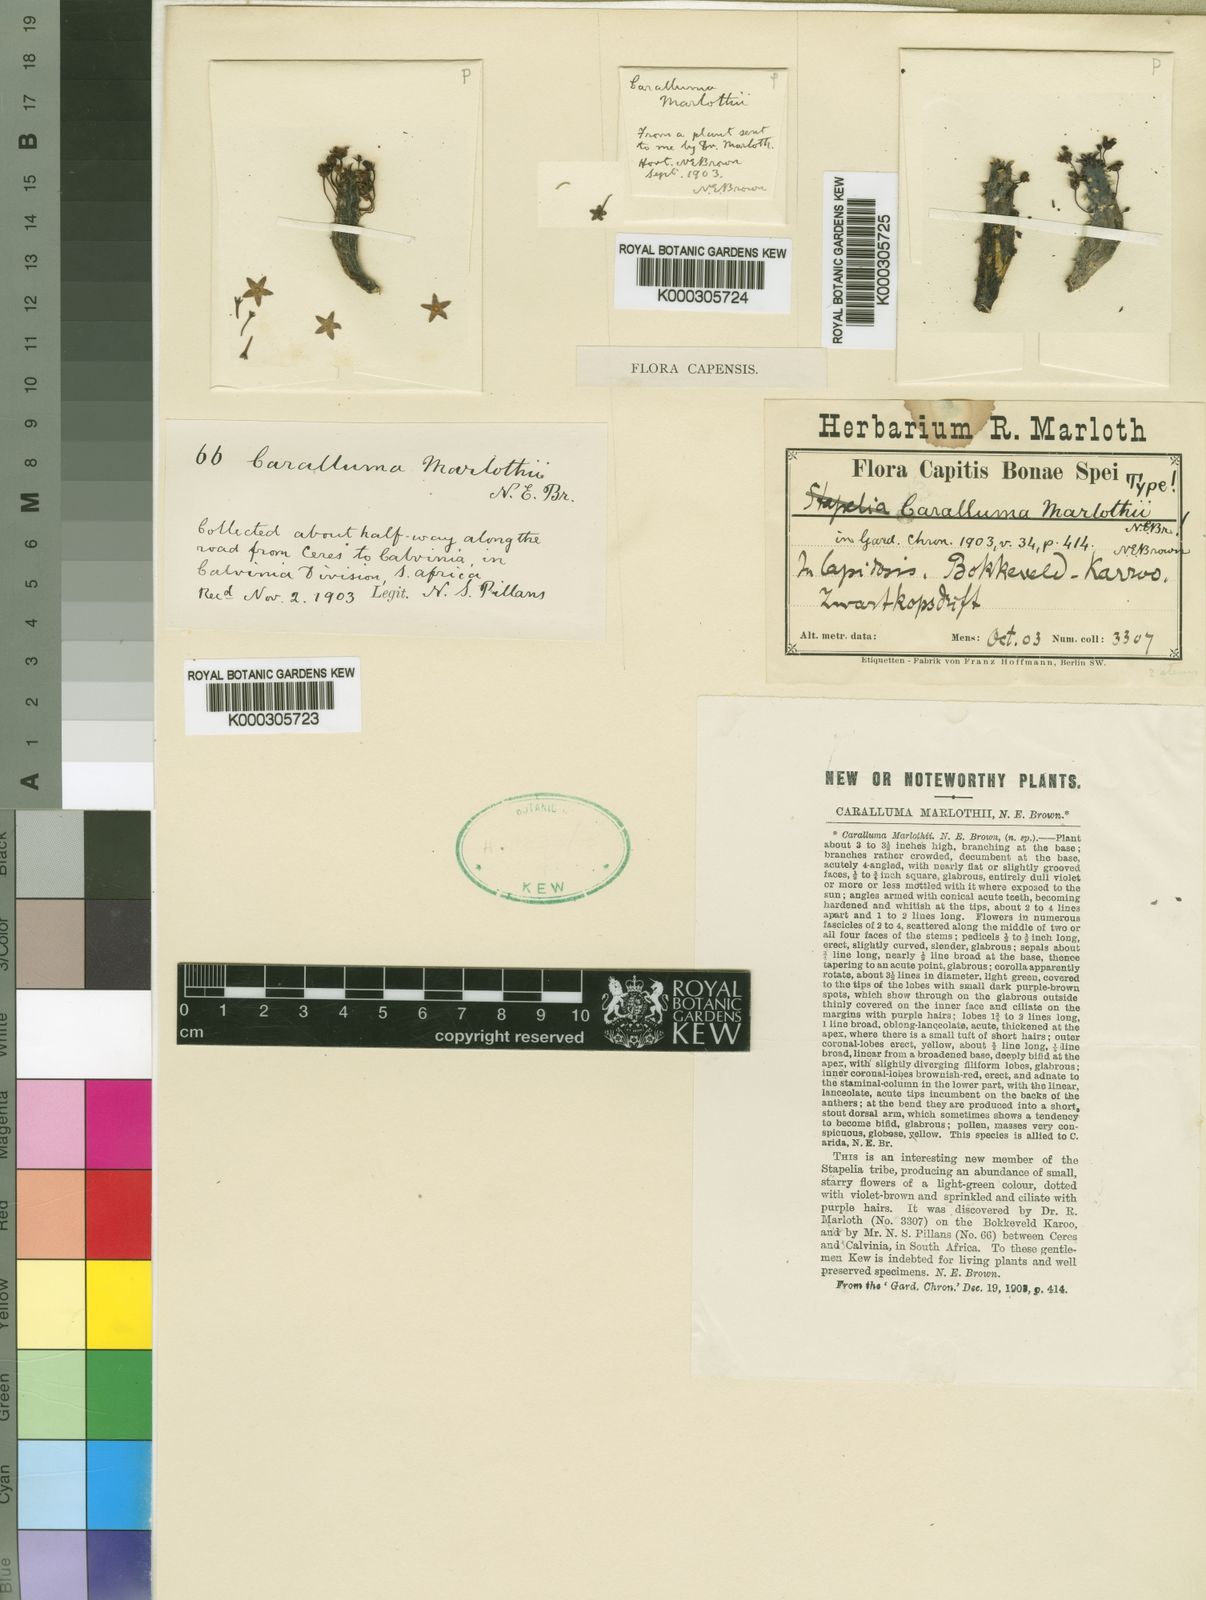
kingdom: Plantae
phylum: Tracheophyta
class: Magnoliopsida
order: Gentianales
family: Apocynaceae
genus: Ceropegia
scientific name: Ceropegia arida
